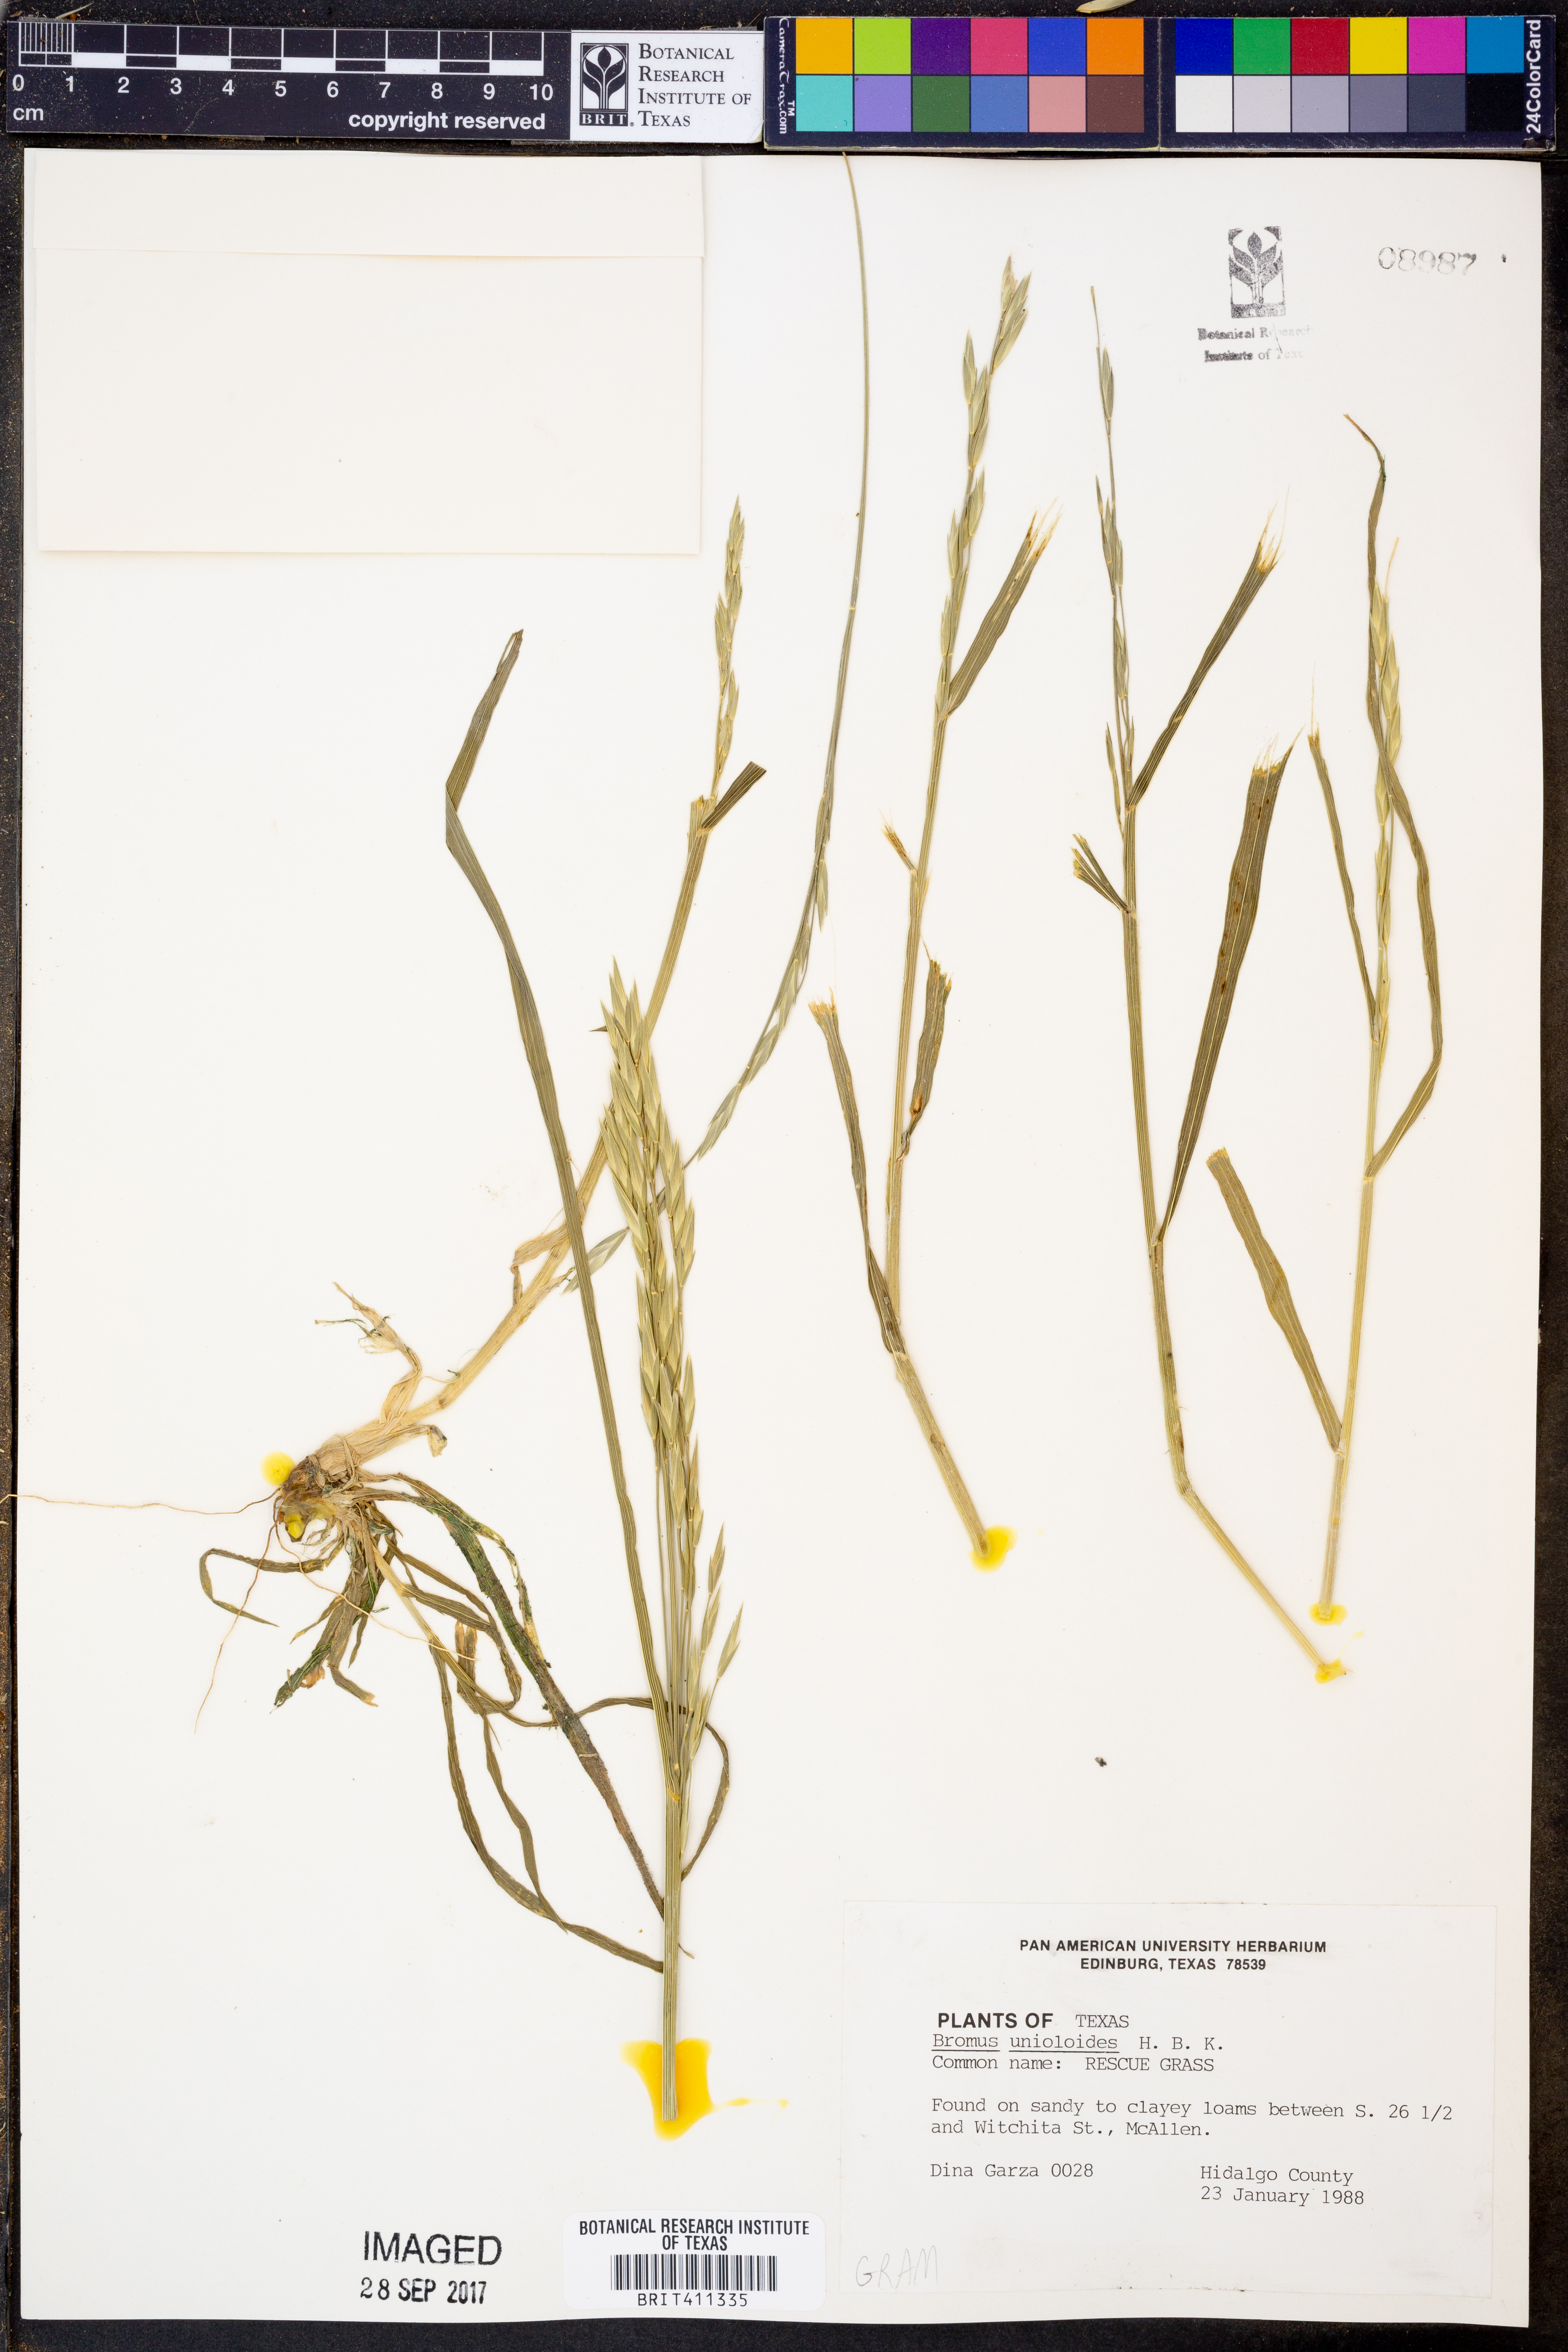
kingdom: Plantae
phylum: Tracheophyta
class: Liliopsida
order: Poales
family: Poaceae
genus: Bromus
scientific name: Bromus catharticus
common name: Rescuegrass
